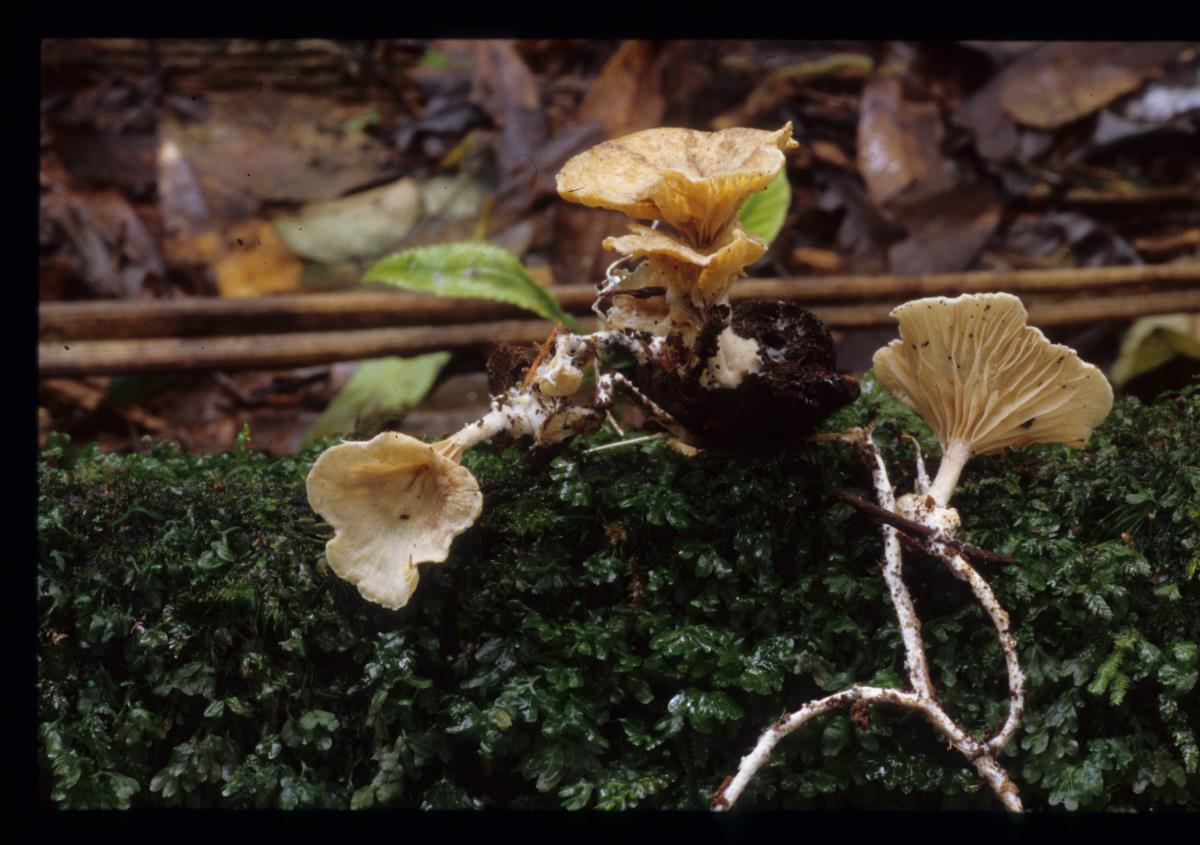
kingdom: Fungi
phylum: Basidiomycota
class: Agaricomycetes
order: Agaricales
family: Tricholomataceae
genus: Rhizocybe
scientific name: Rhizocybe albida
